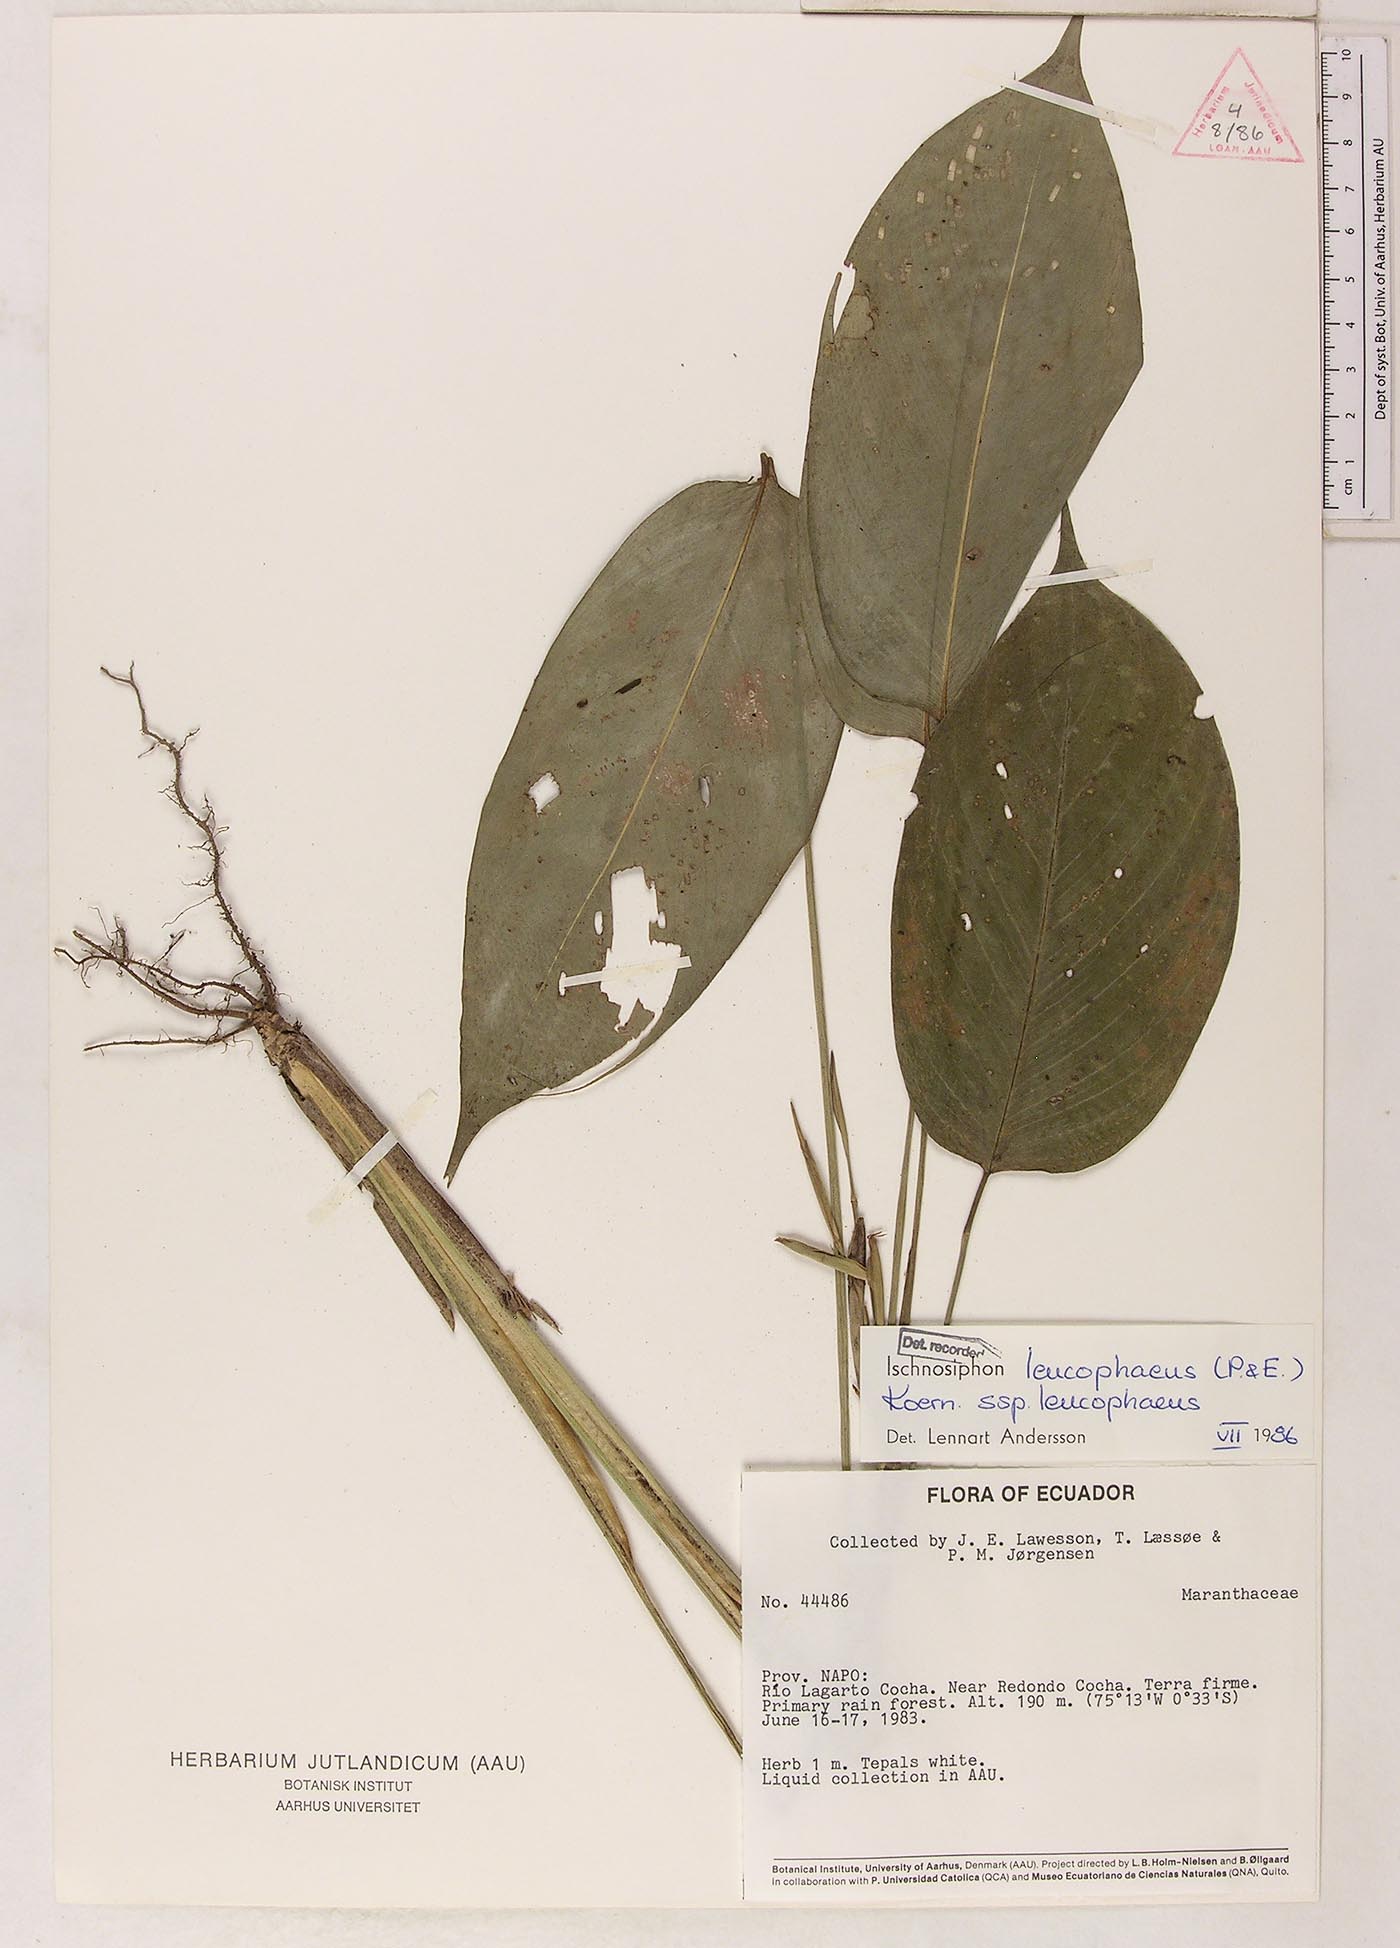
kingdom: Plantae
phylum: Tracheophyta
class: Liliopsida
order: Zingiberales
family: Marantaceae
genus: Ischnosiphon
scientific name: Ischnosiphon
